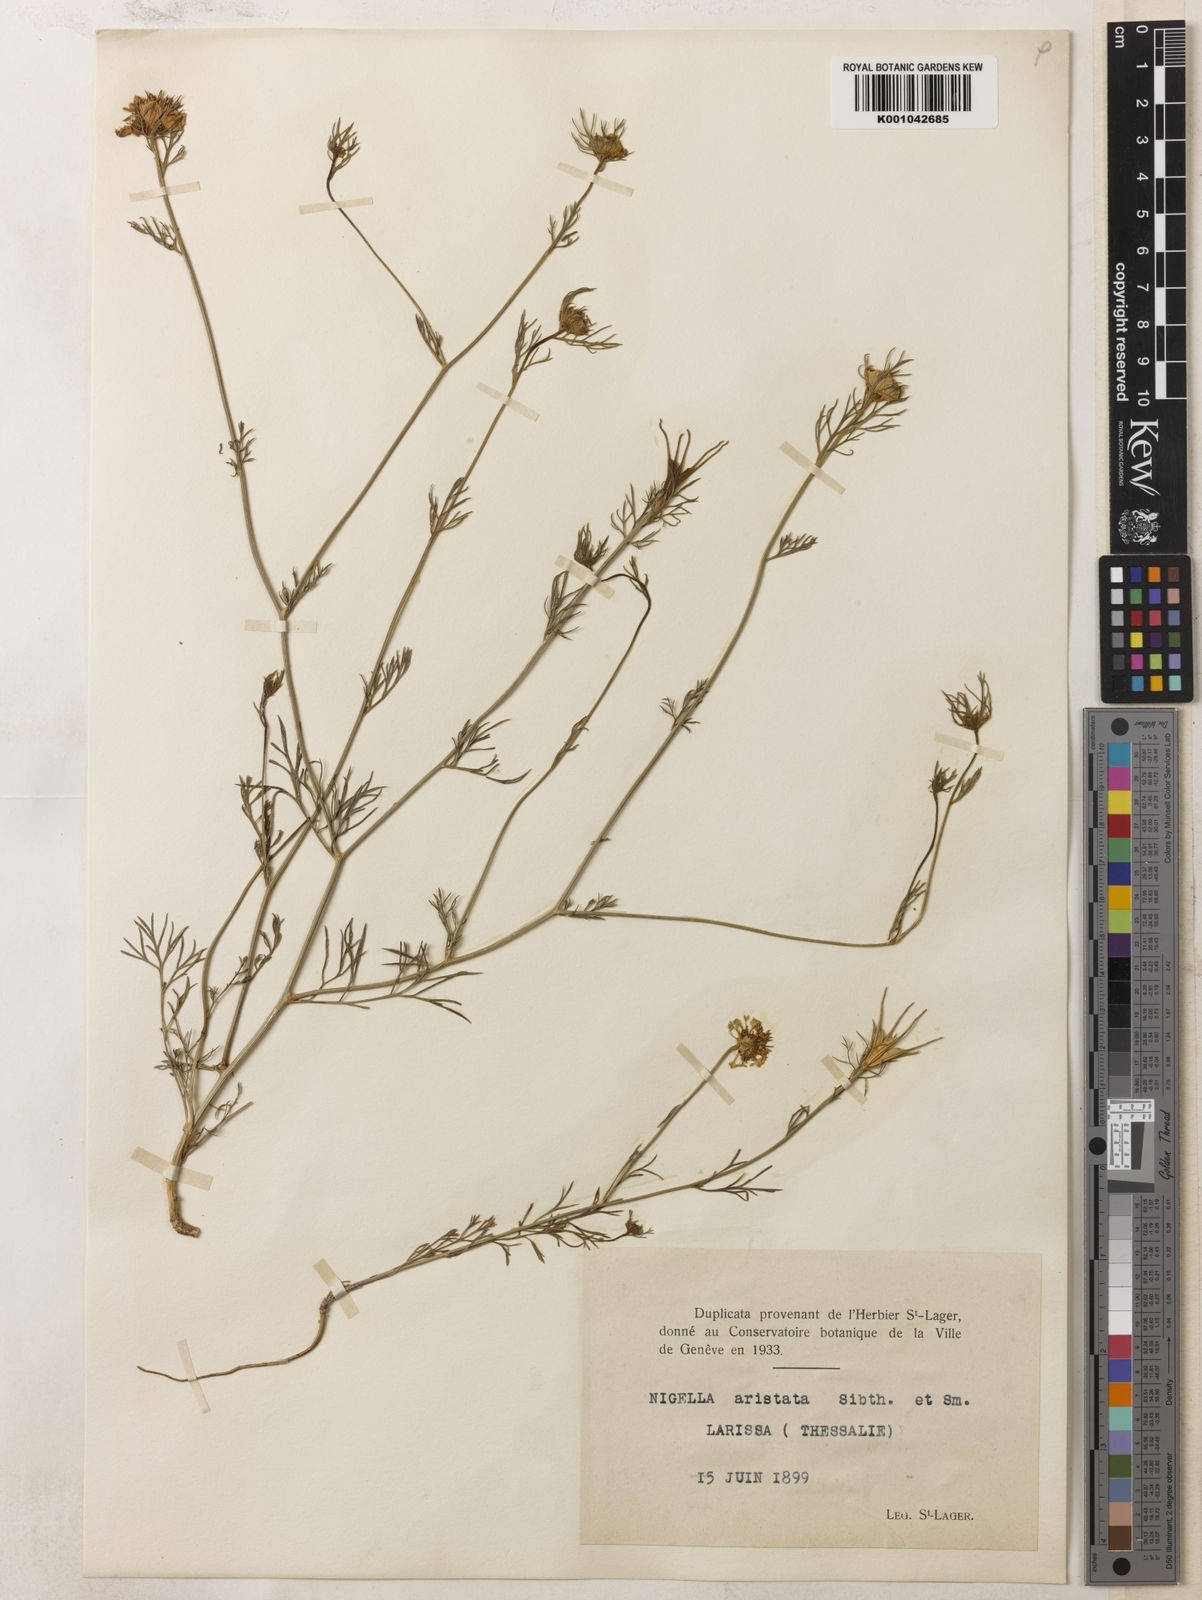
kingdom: Plantae
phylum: Tracheophyta
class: Magnoliopsida
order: Ranunculales
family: Ranunculaceae
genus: Nigella
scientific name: Nigella arvensis
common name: Wild fennel-flower
